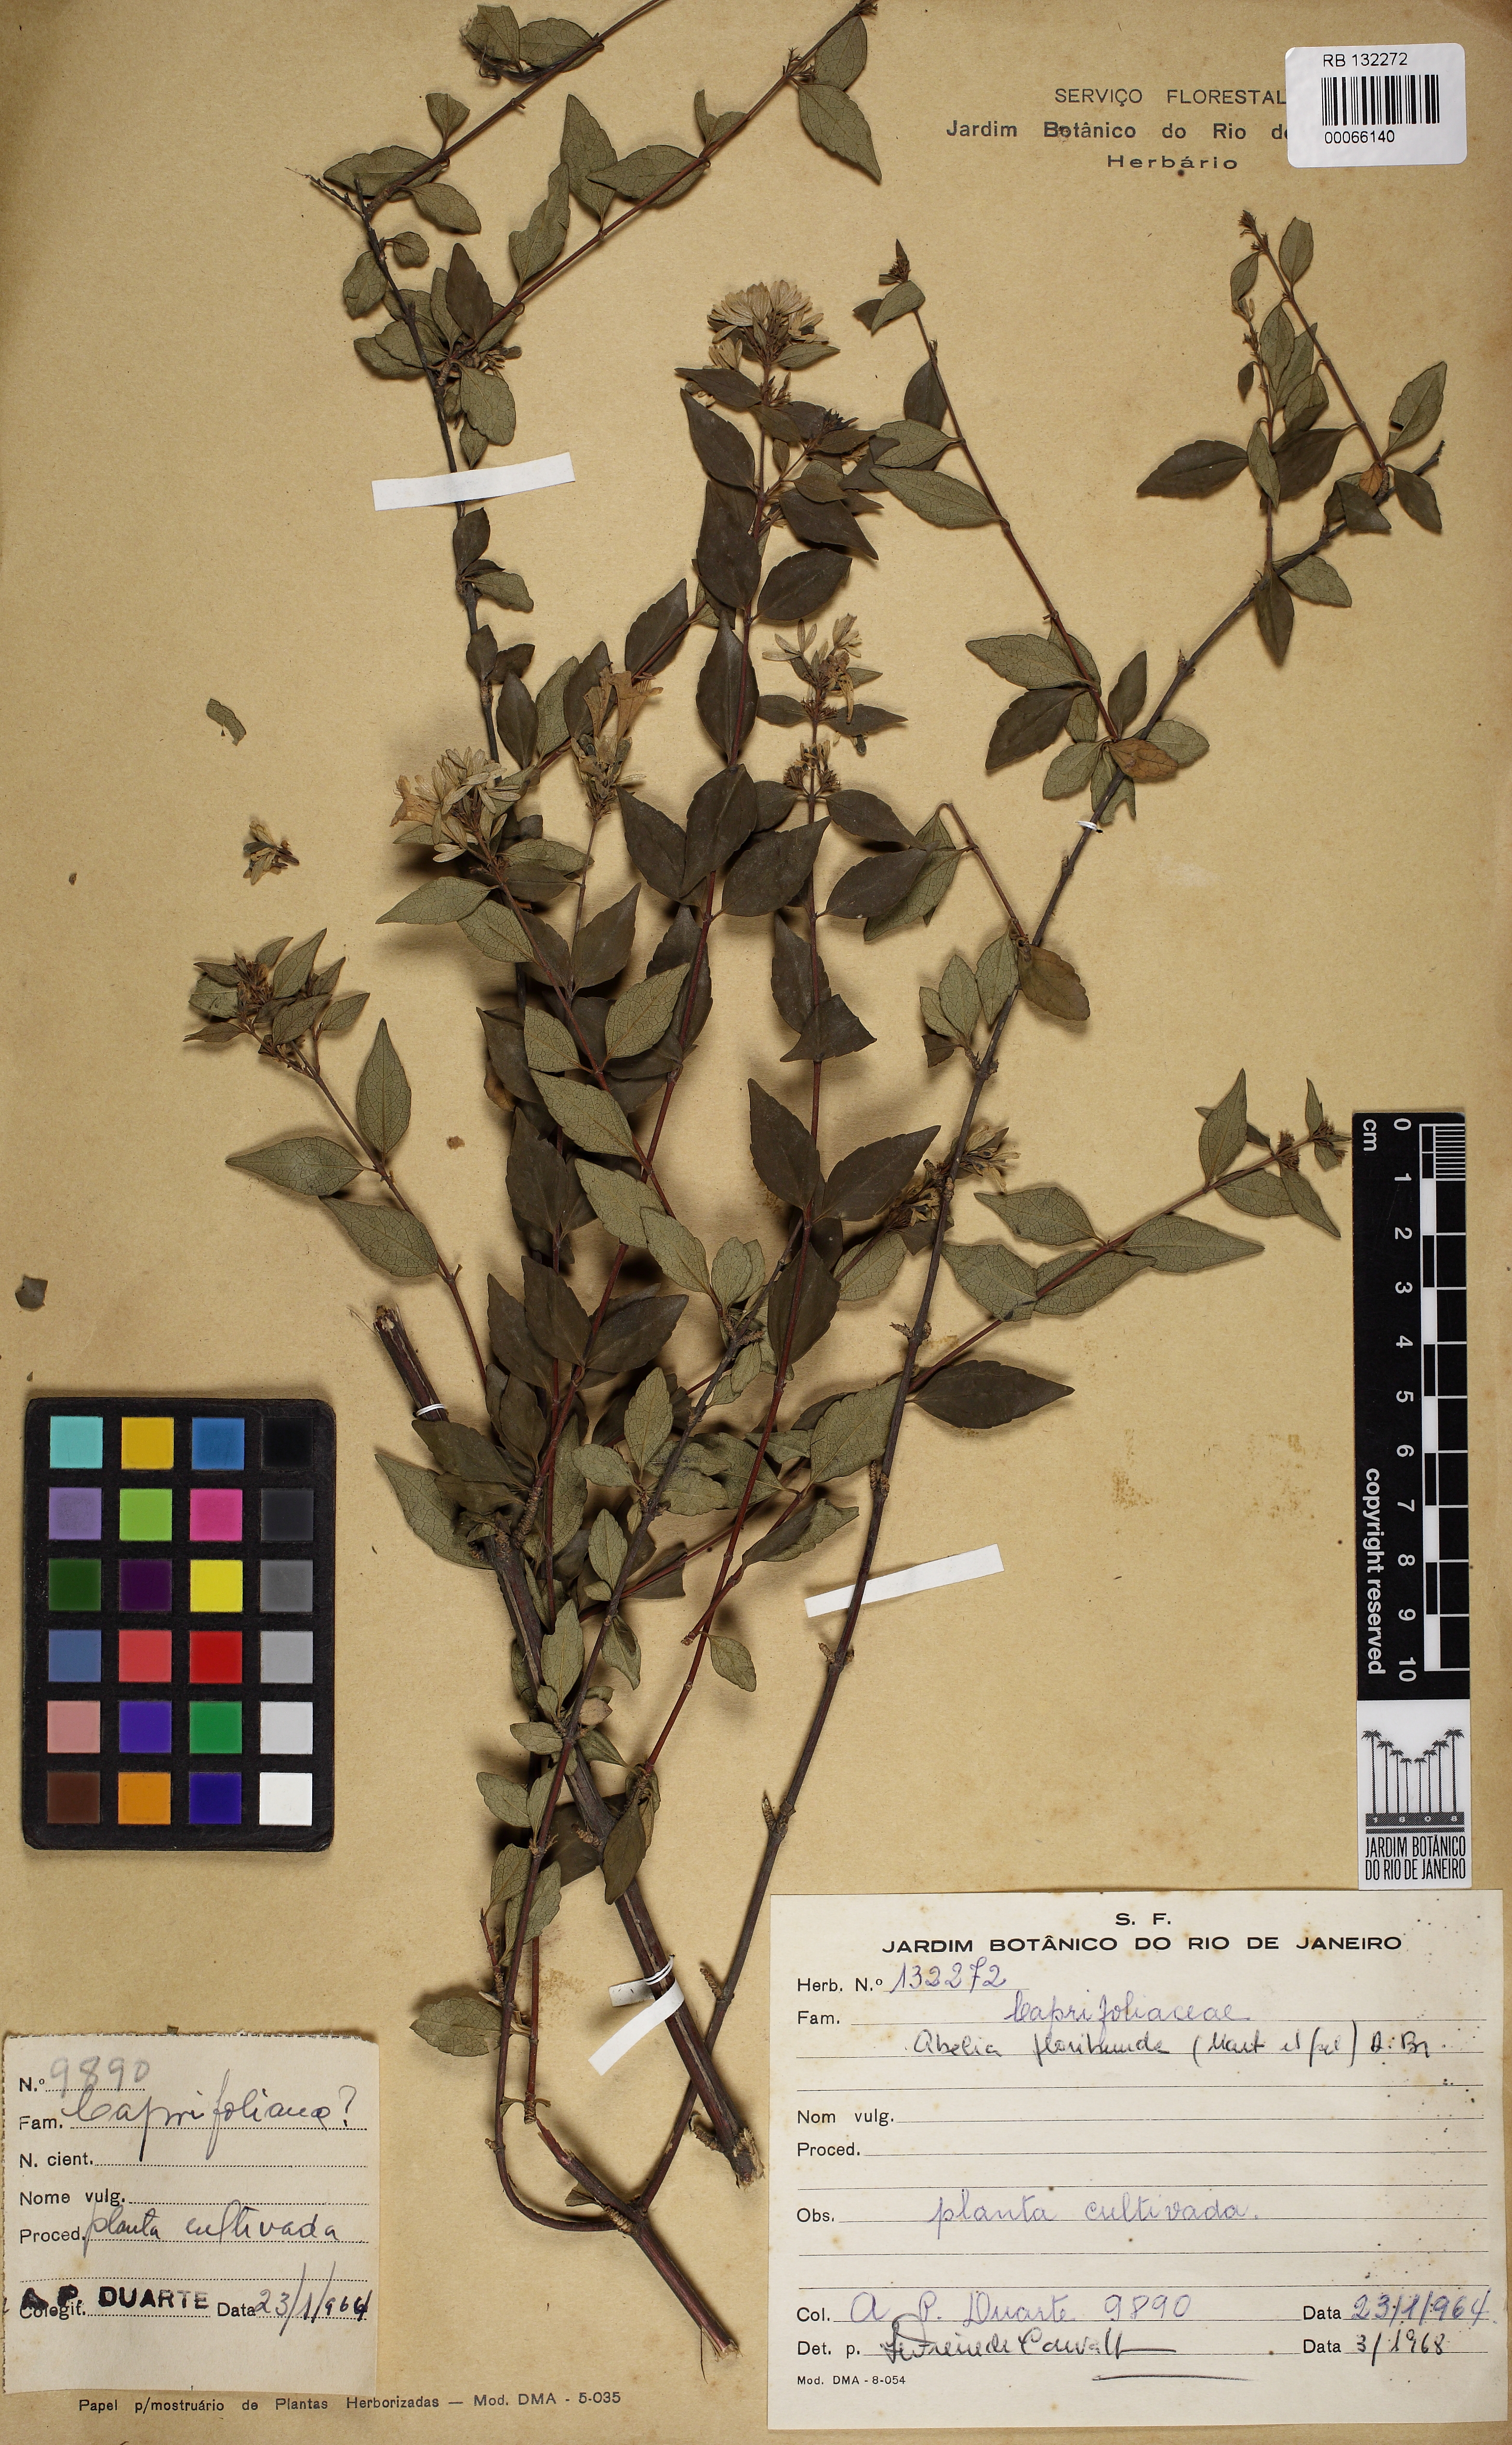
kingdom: Plantae
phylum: Tracheophyta
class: Magnoliopsida
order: Dipsacales
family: Caprifoliaceae
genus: Vesalea
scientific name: Vesalea floribunda
